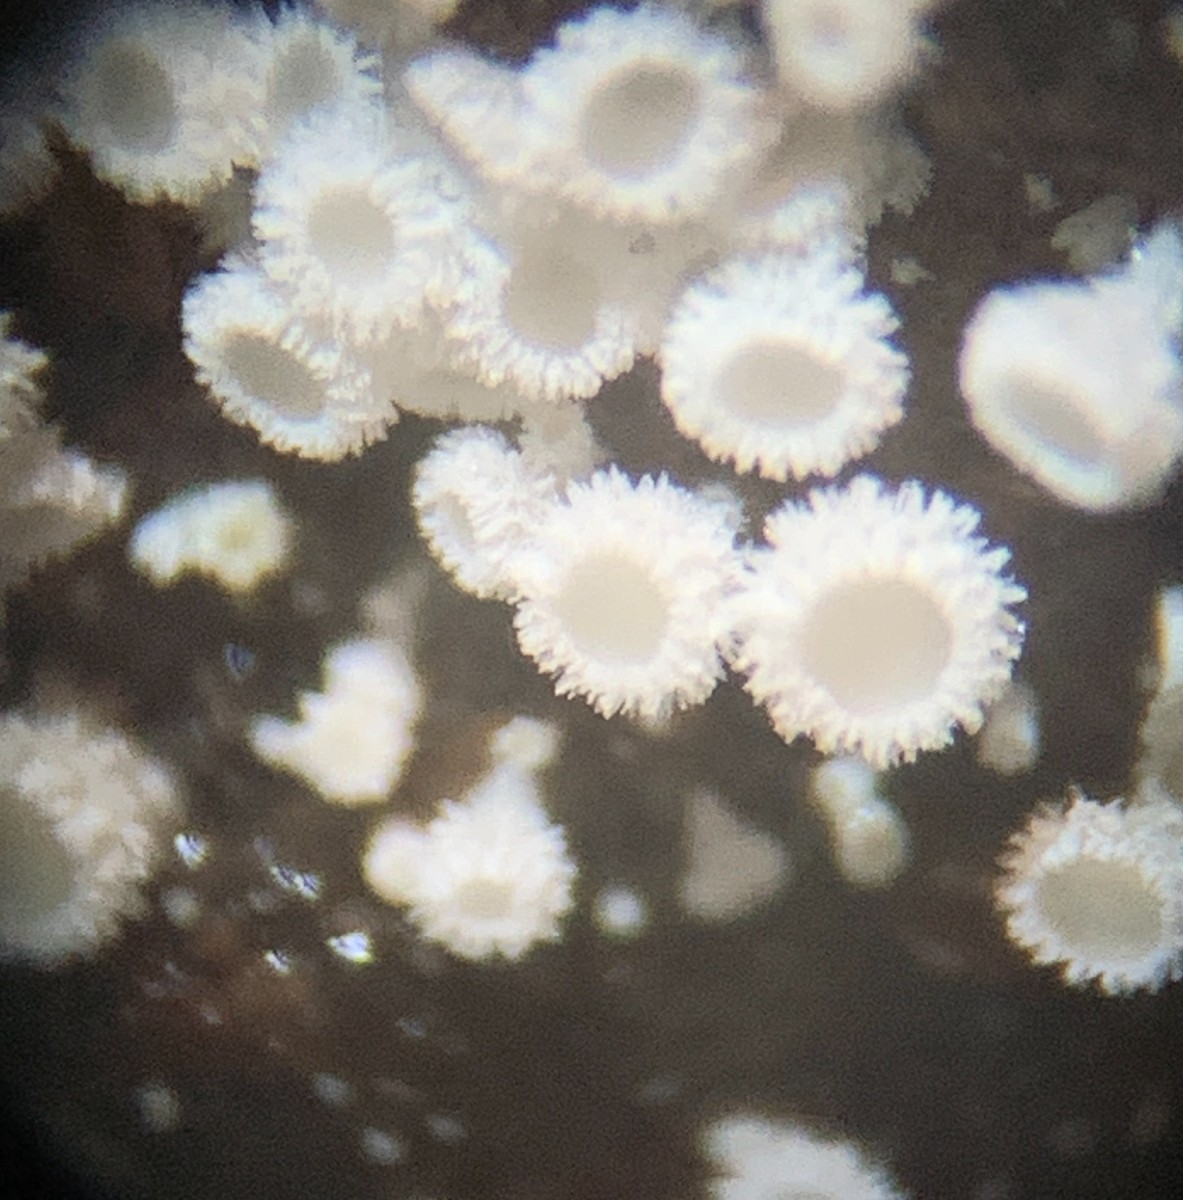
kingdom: Fungi
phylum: Ascomycota
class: Leotiomycetes
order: Helotiales
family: Lachnaceae
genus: Lachnum
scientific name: Lachnum virgineum
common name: jomfru-frynseskive
